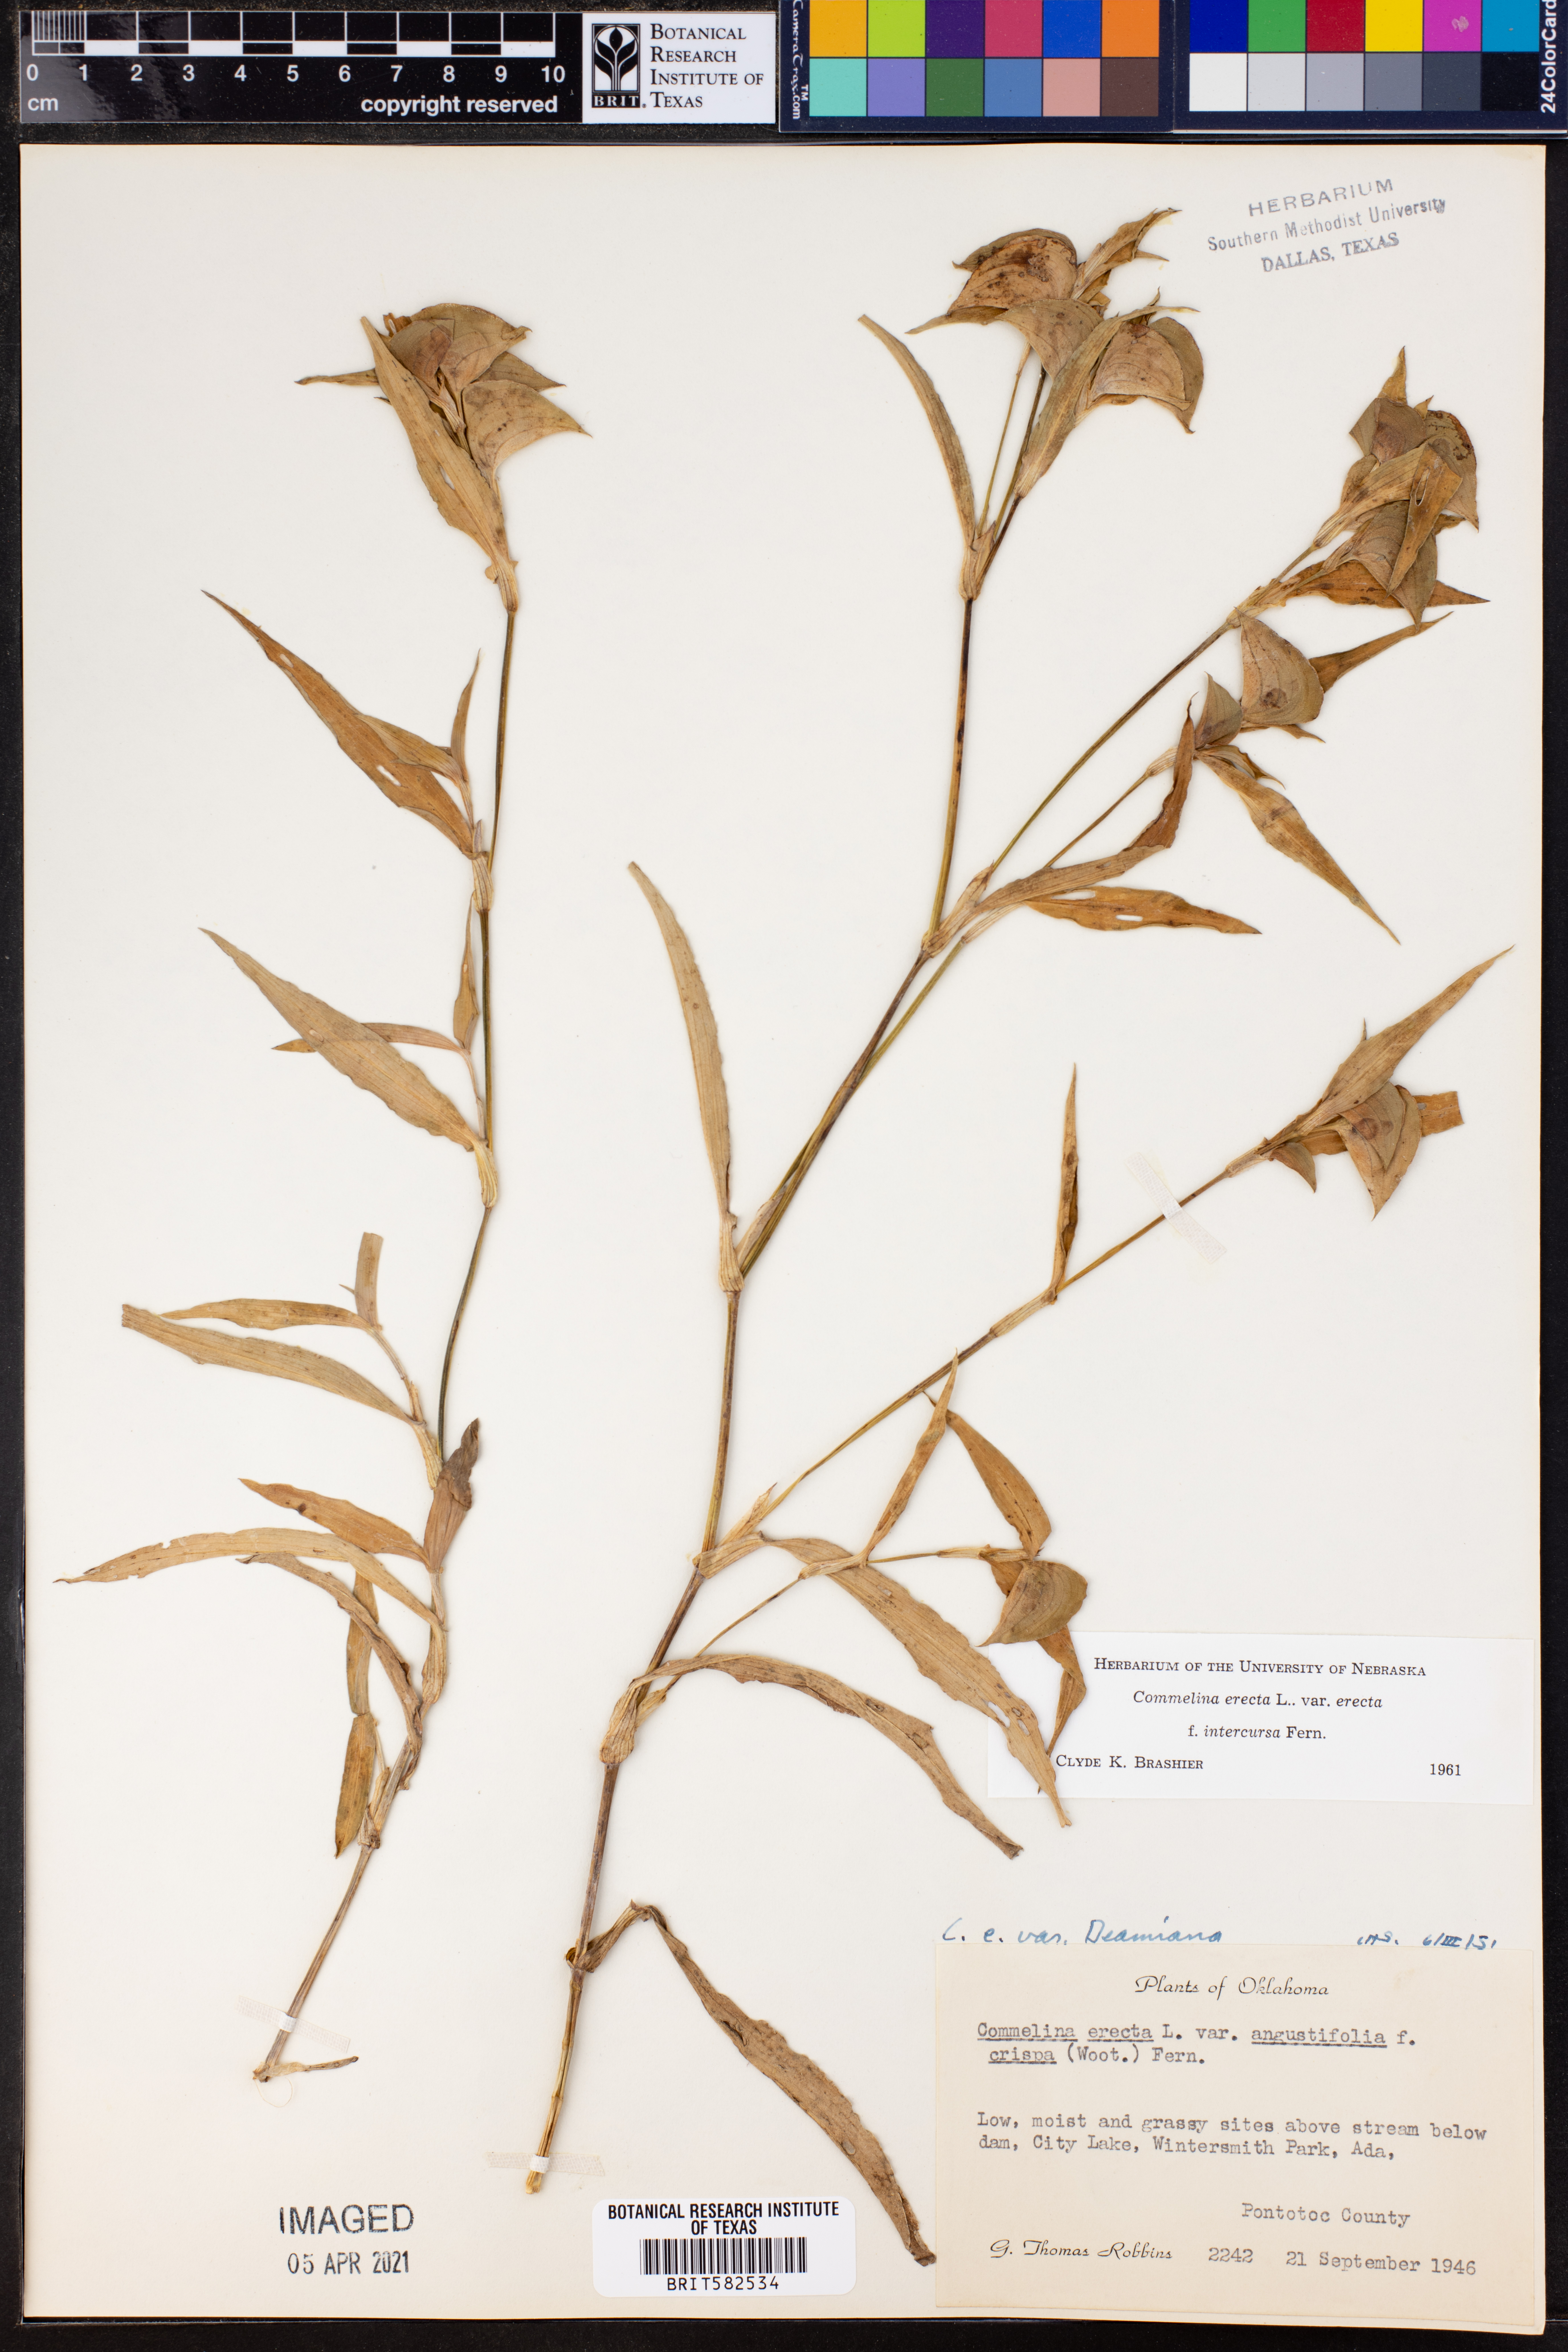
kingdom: Plantae
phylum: Tracheophyta
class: Liliopsida
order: Commelinales
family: Commelinaceae
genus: Commelina
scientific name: Commelina erecta
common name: Blousel blommetjie
